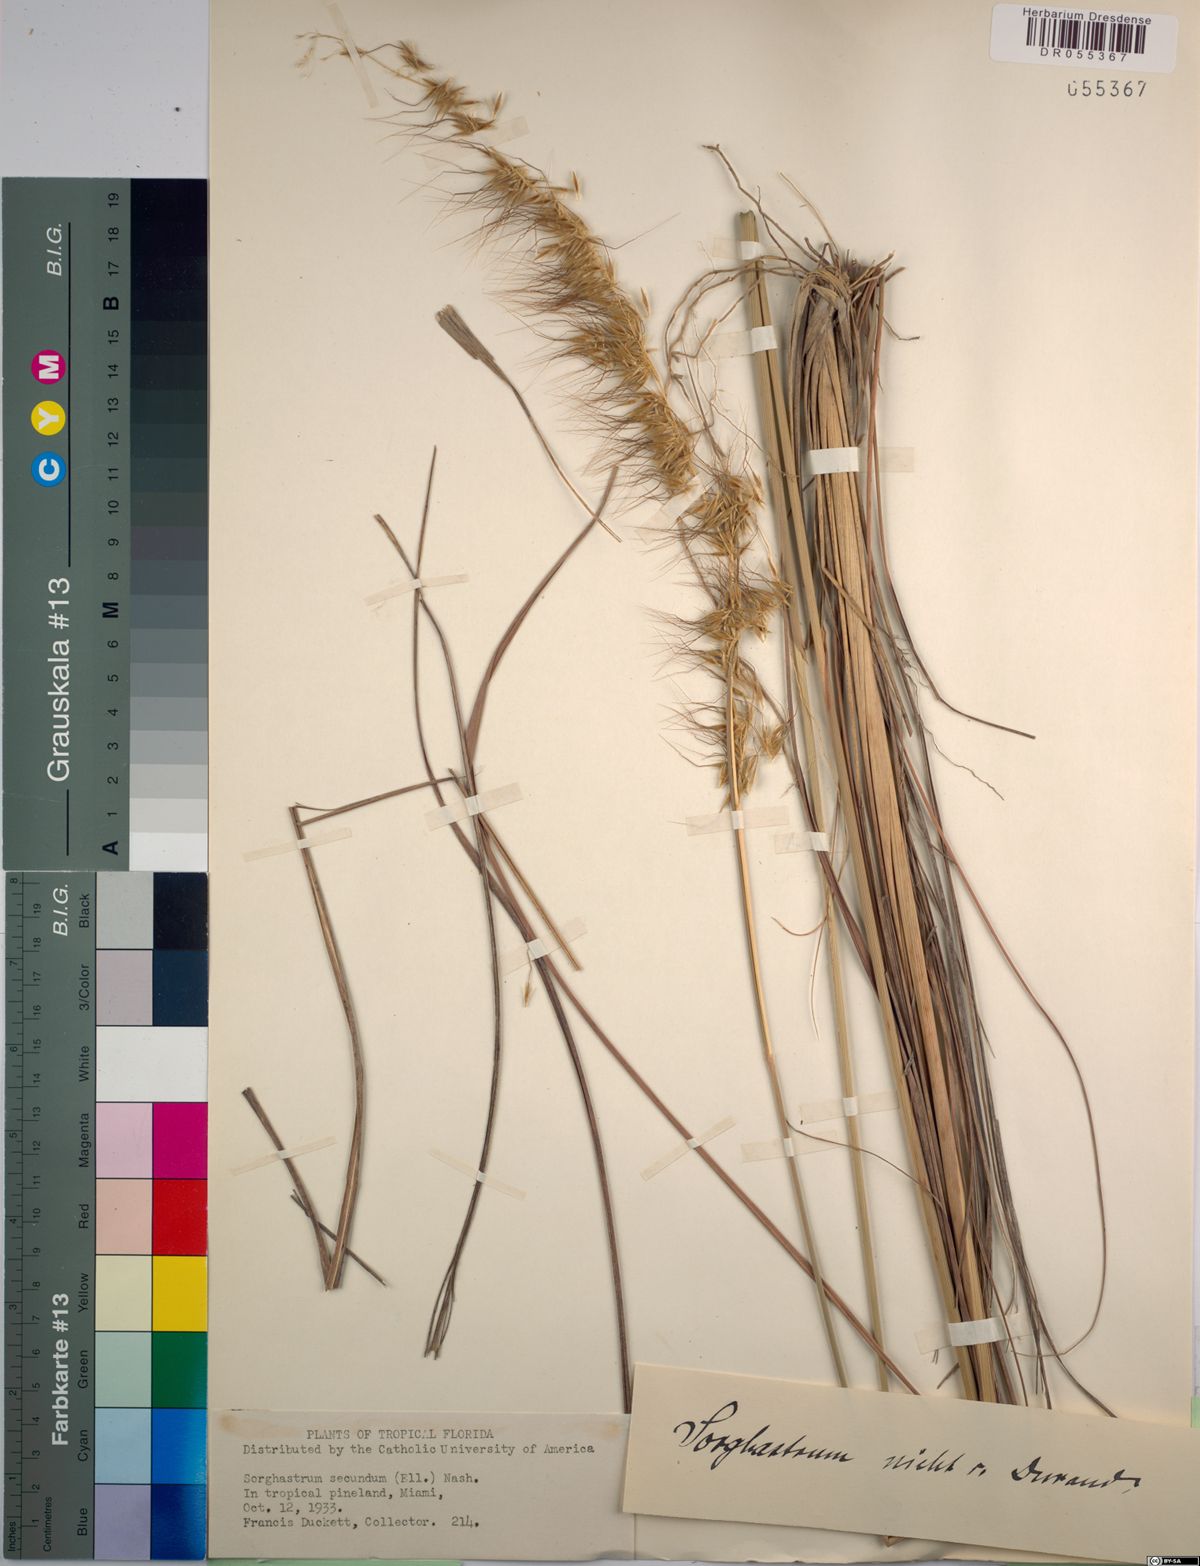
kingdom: Plantae
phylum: Tracheophyta
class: Liliopsida
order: Poales
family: Poaceae
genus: Sorghastrum
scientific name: Sorghastrum secundum
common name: Lopsided indian grass
